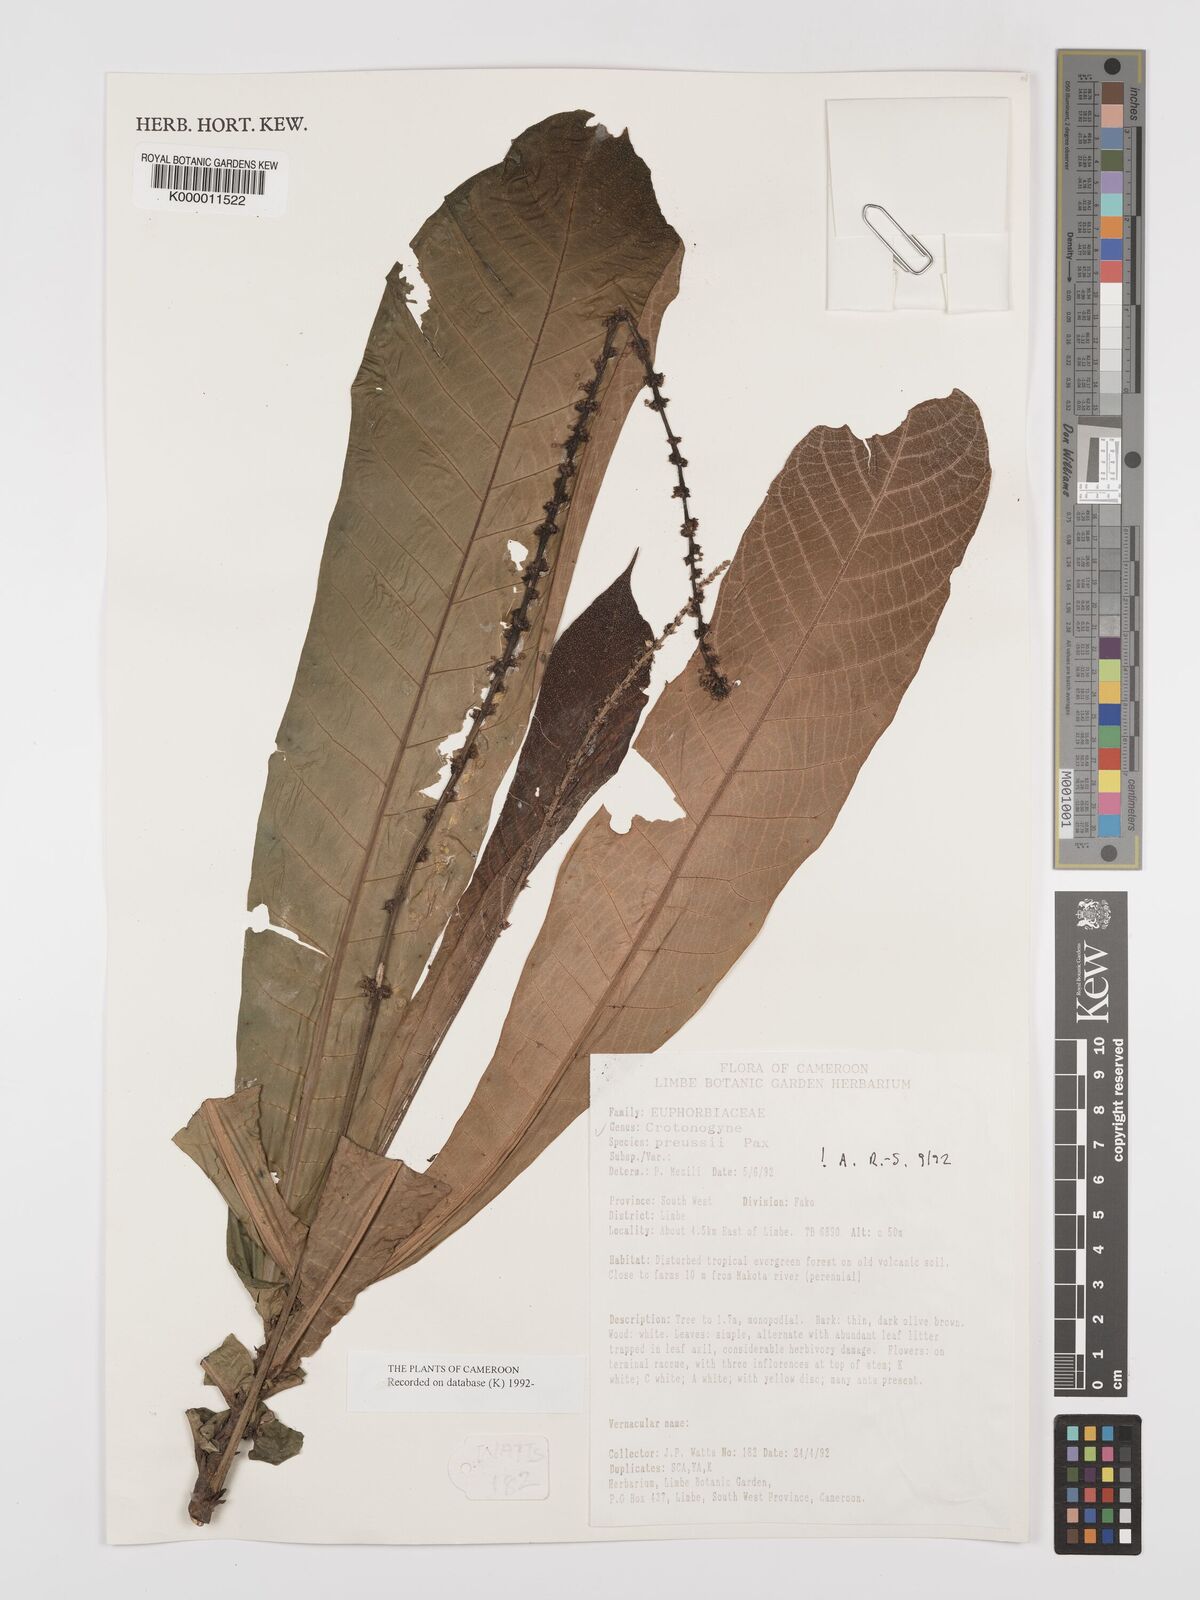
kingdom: Plantae
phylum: Tracheophyta
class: Magnoliopsida
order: Malpighiales
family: Euphorbiaceae
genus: Crotonogyne
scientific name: Crotonogyne preussii
